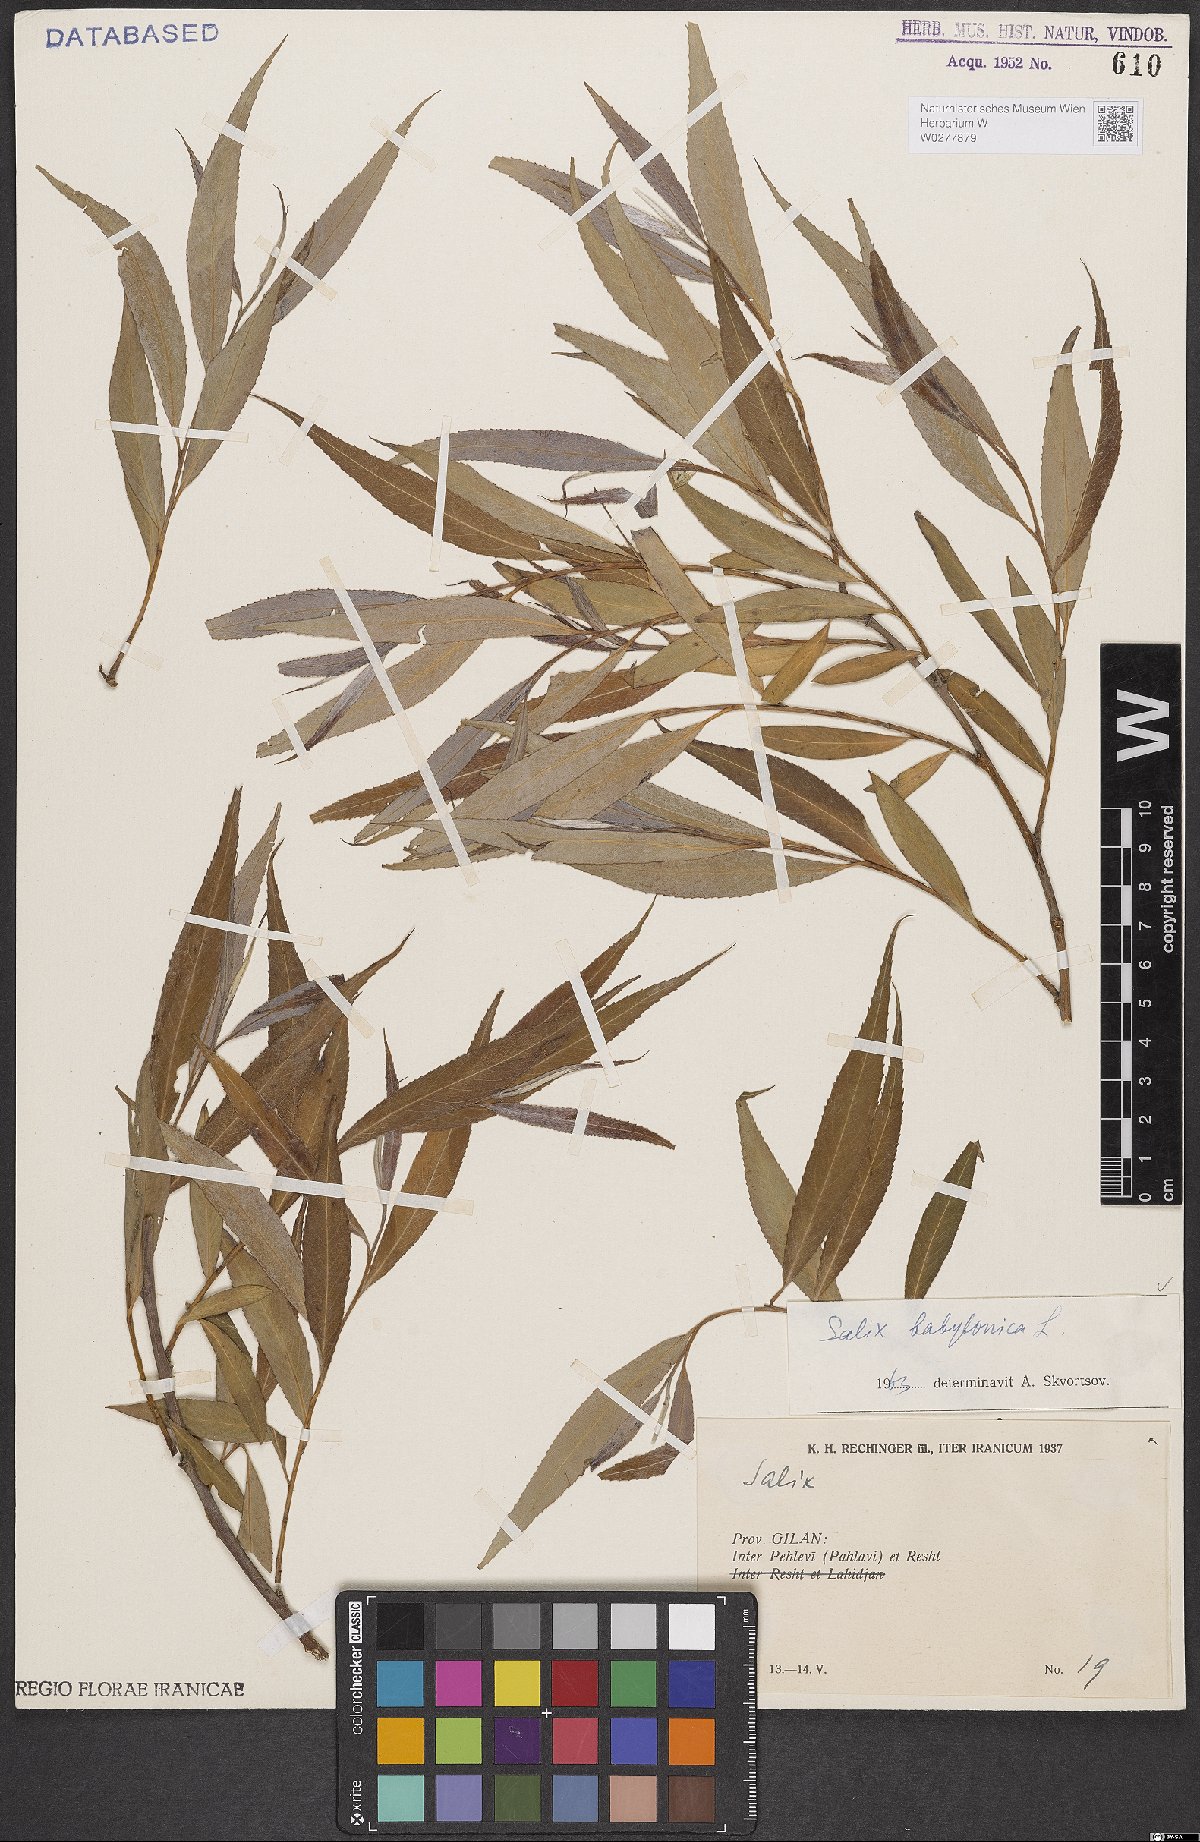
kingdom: Plantae
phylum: Tracheophyta
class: Magnoliopsida
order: Malpighiales
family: Salicaceae
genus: Salix
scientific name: Salix babylonica
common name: Weeping willow
